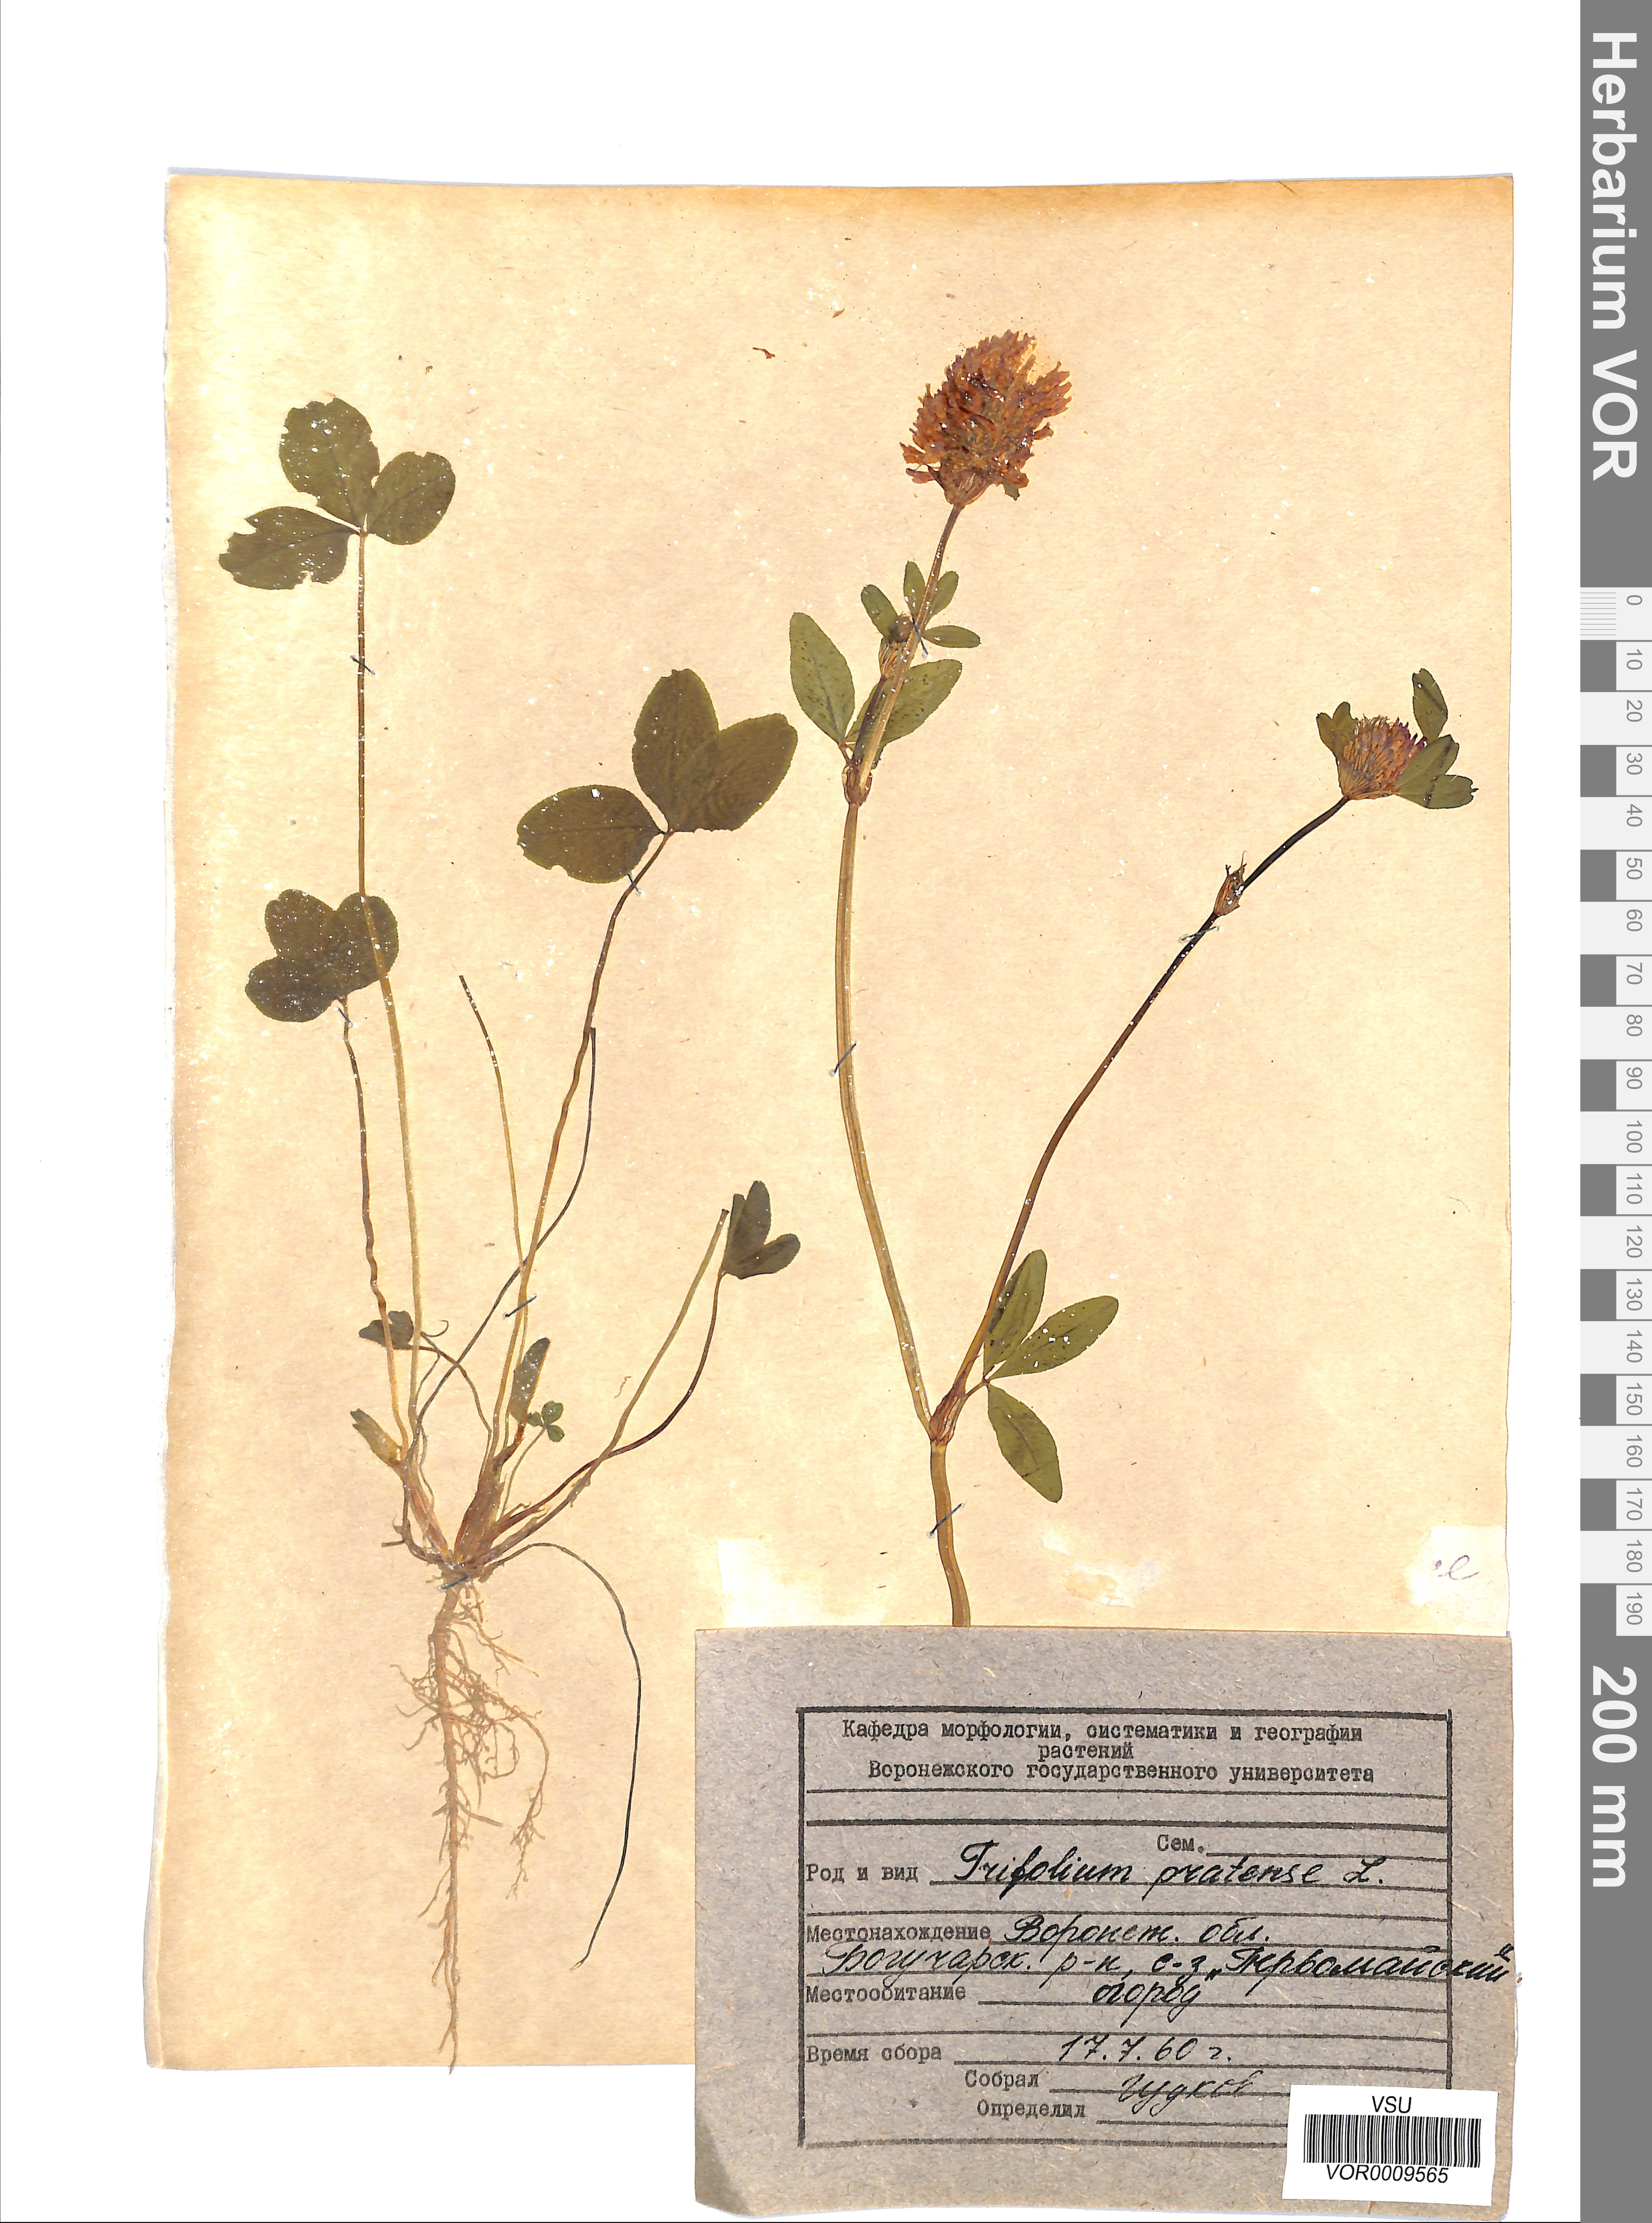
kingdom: Plantae
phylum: Tracheophyta
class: Magnoliopsida
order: Fabales
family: Fabaceae
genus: Trifolium
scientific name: Trifolium pratense
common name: Red clover
